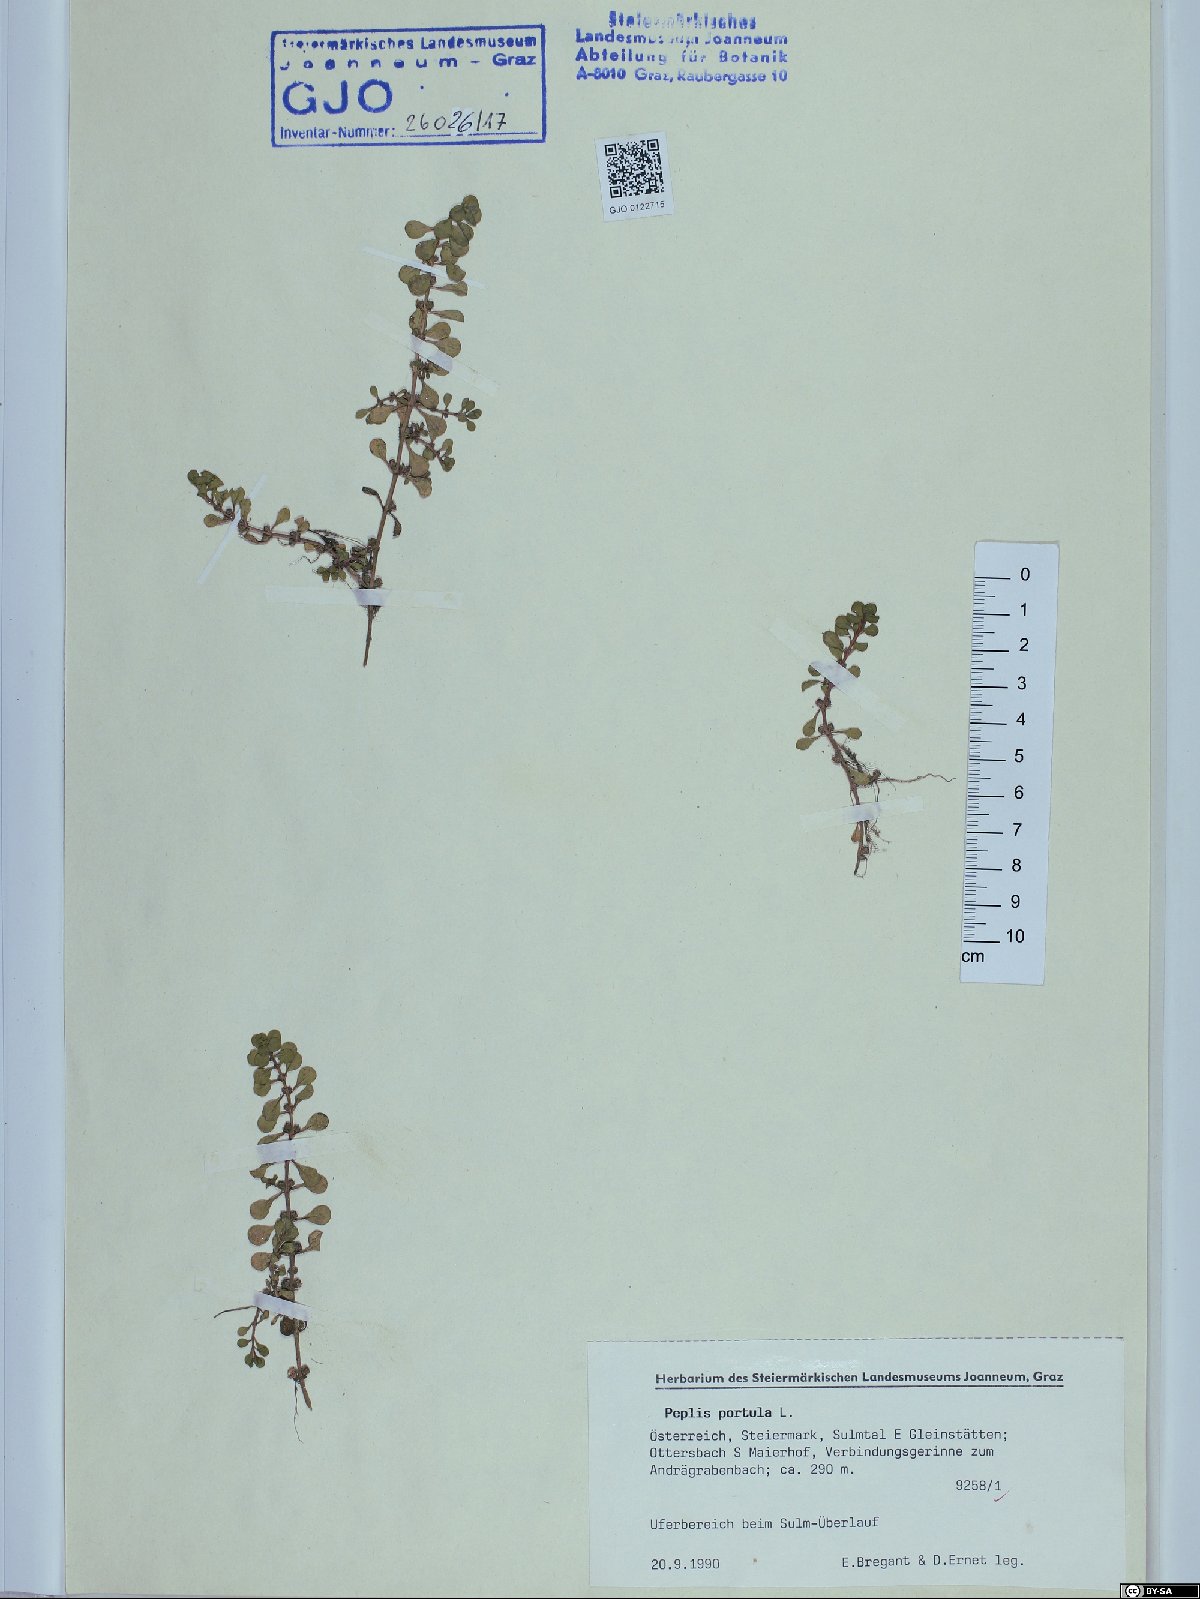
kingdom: Plantae
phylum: Tracheophyta
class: Magnoliopsida
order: Myrtales
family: Lythraceae
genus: Lythrum
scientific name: Lythrum portula
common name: Water purslane
